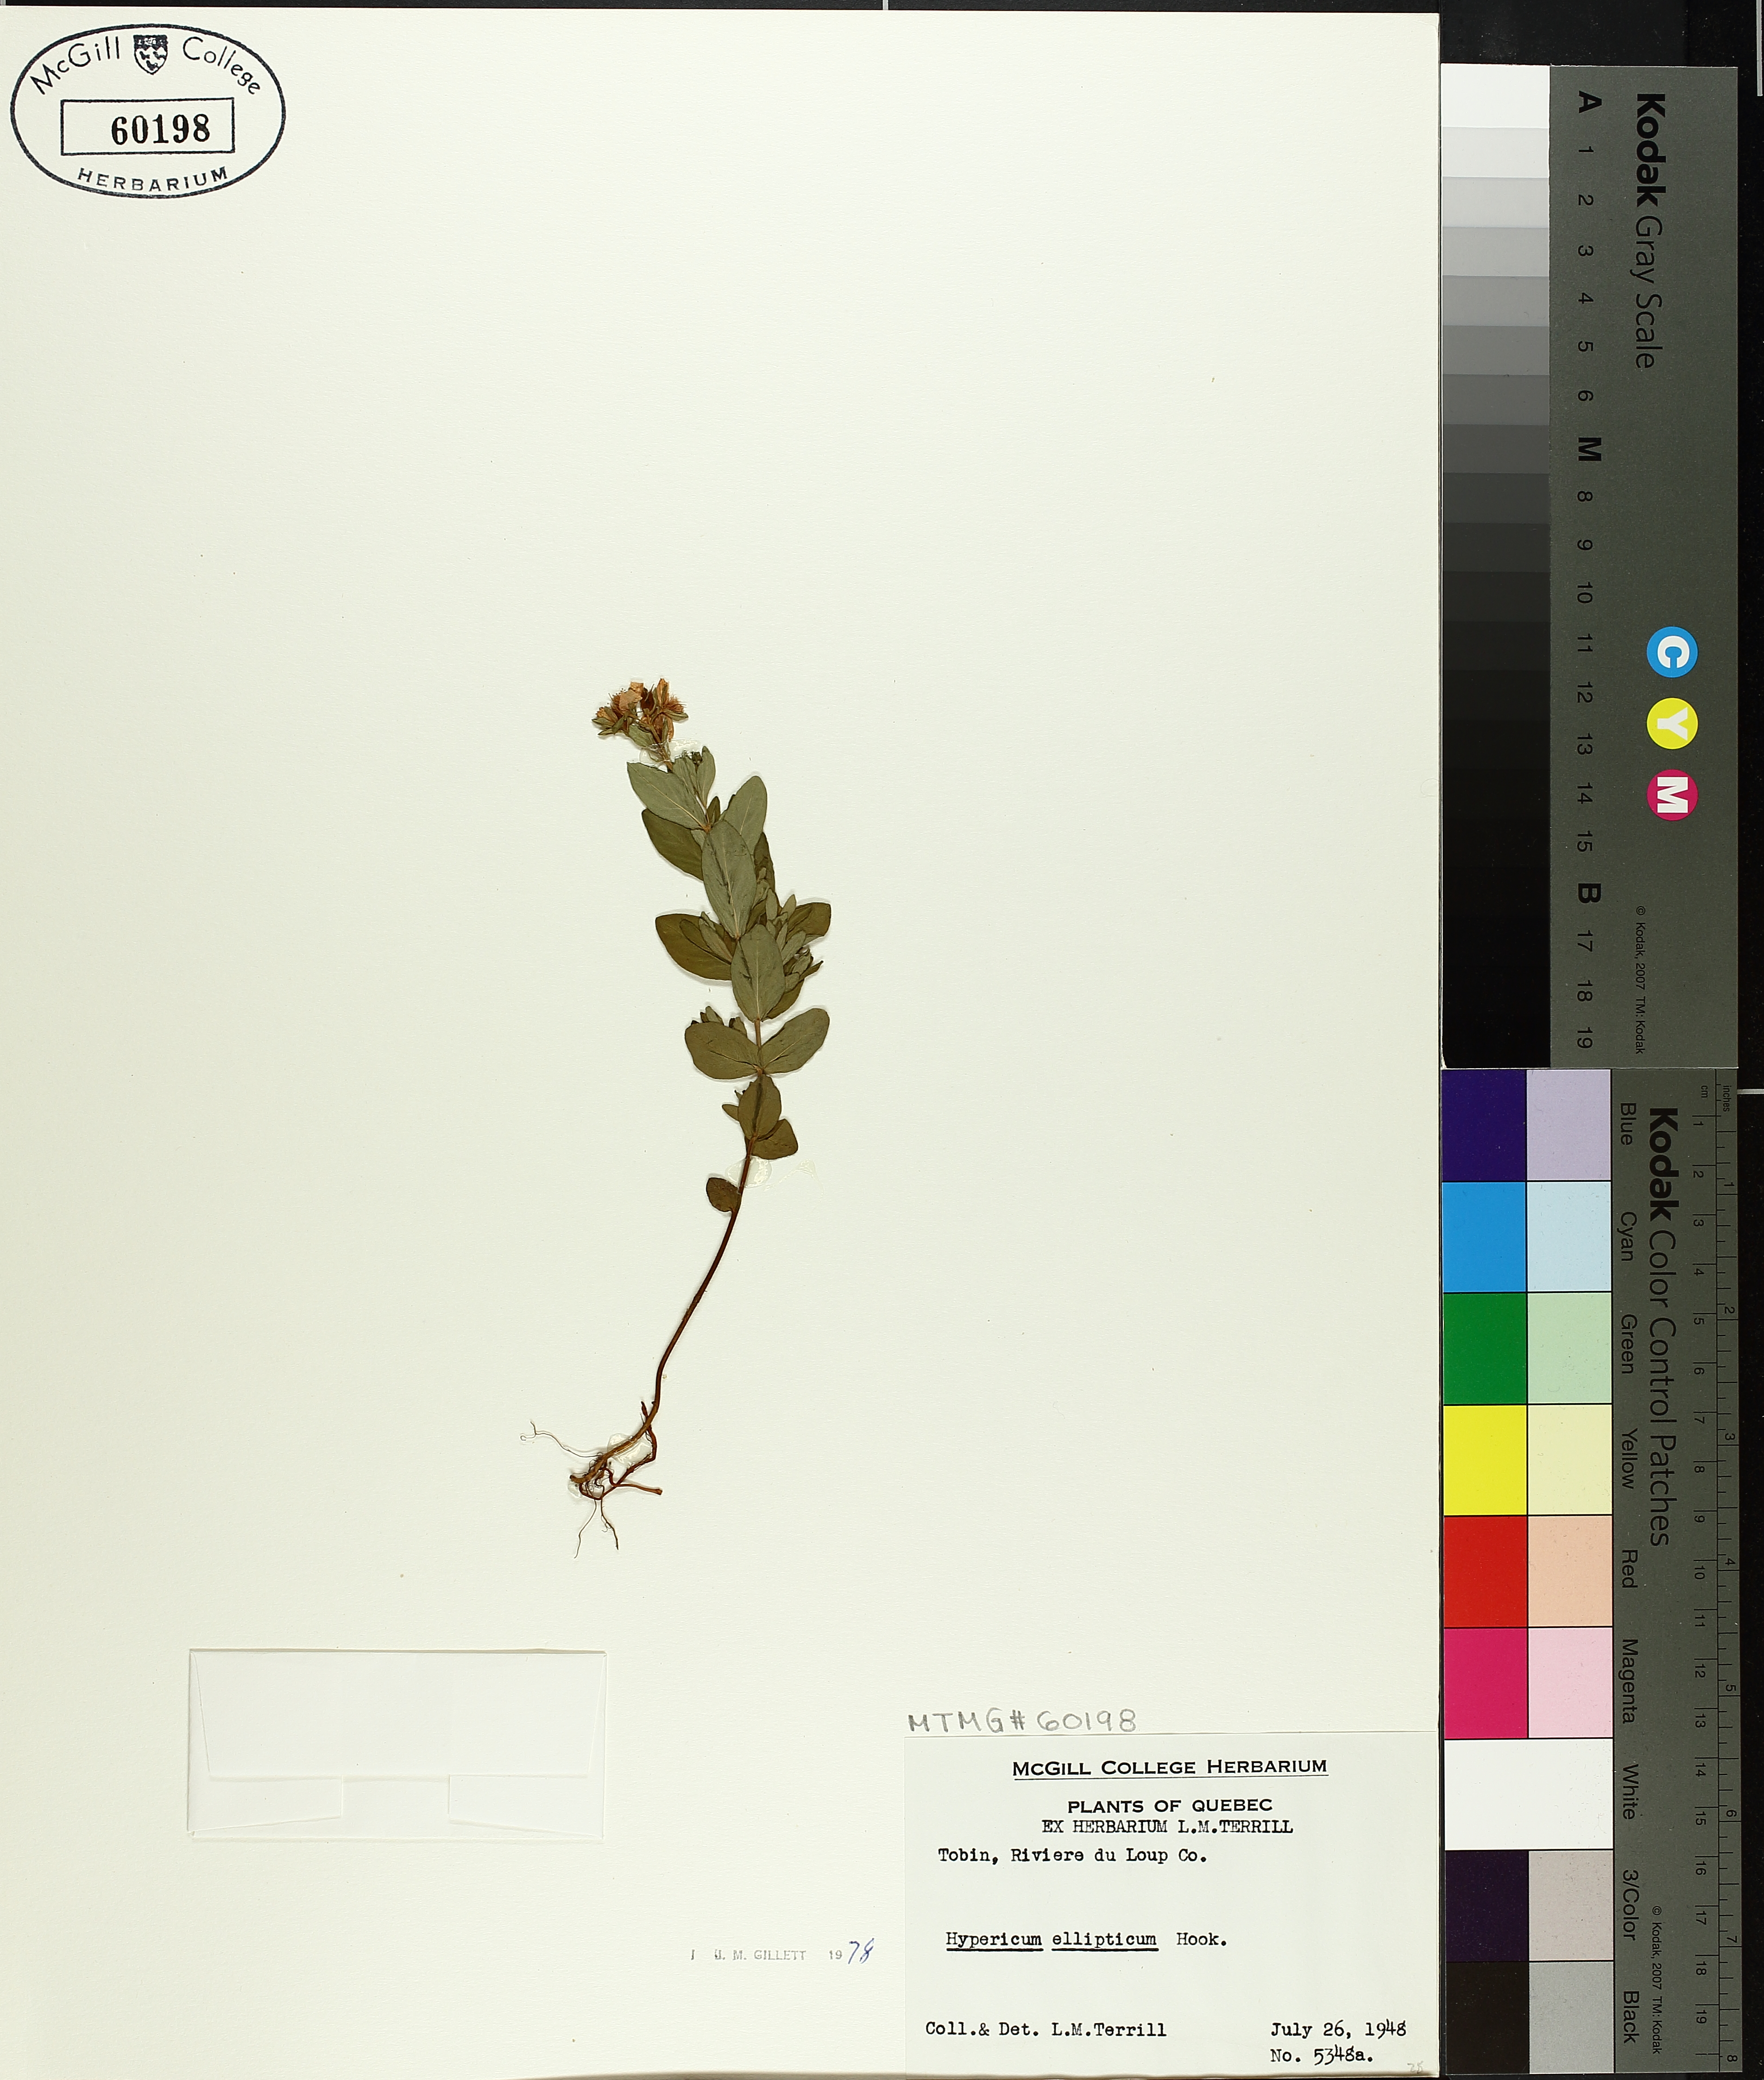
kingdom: Plantae
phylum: Tracheophyta
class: Magnoliopsida
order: Malpighiales
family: Hypericaceae
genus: Hypericum
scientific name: Hypericum ellipticum
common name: Elliptic st. john's-wort
